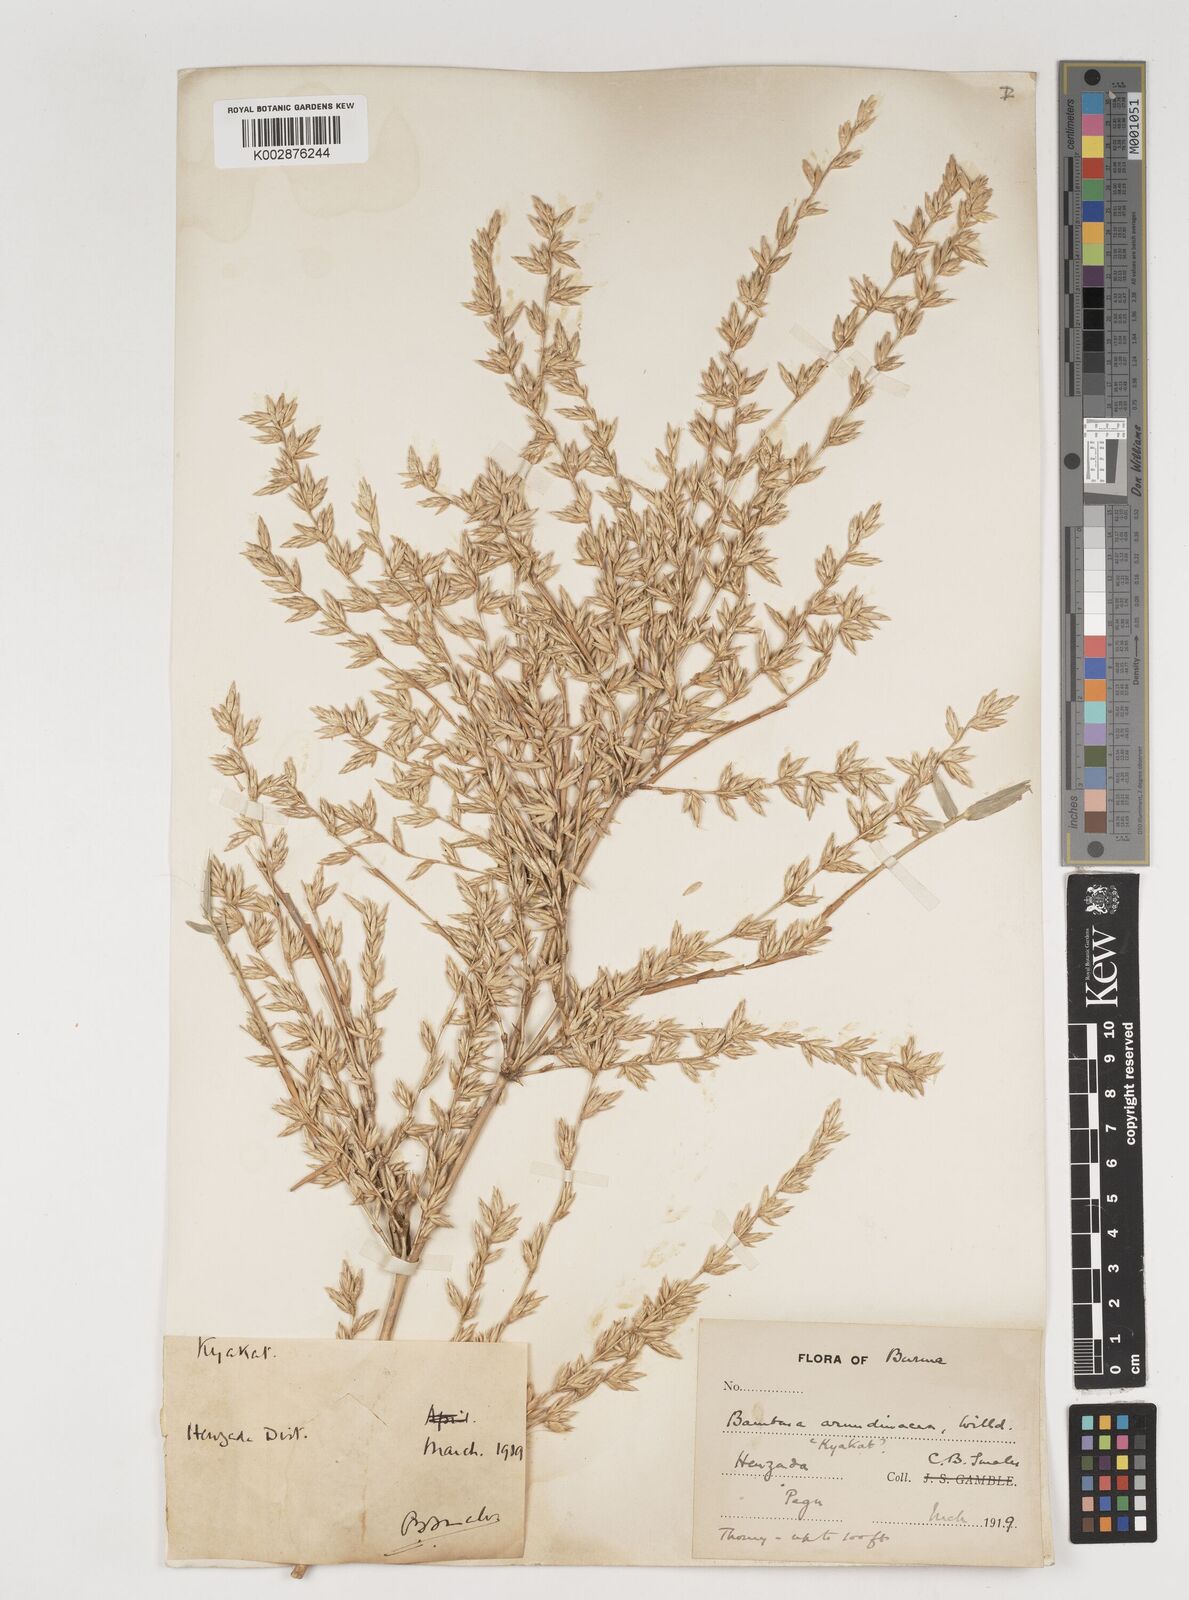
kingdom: Plantae
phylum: Tracheophyta
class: Liliopsida
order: Poales
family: Poaceae
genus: Bambusa
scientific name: Bambusa bambos
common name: Indian thorny bamboo
